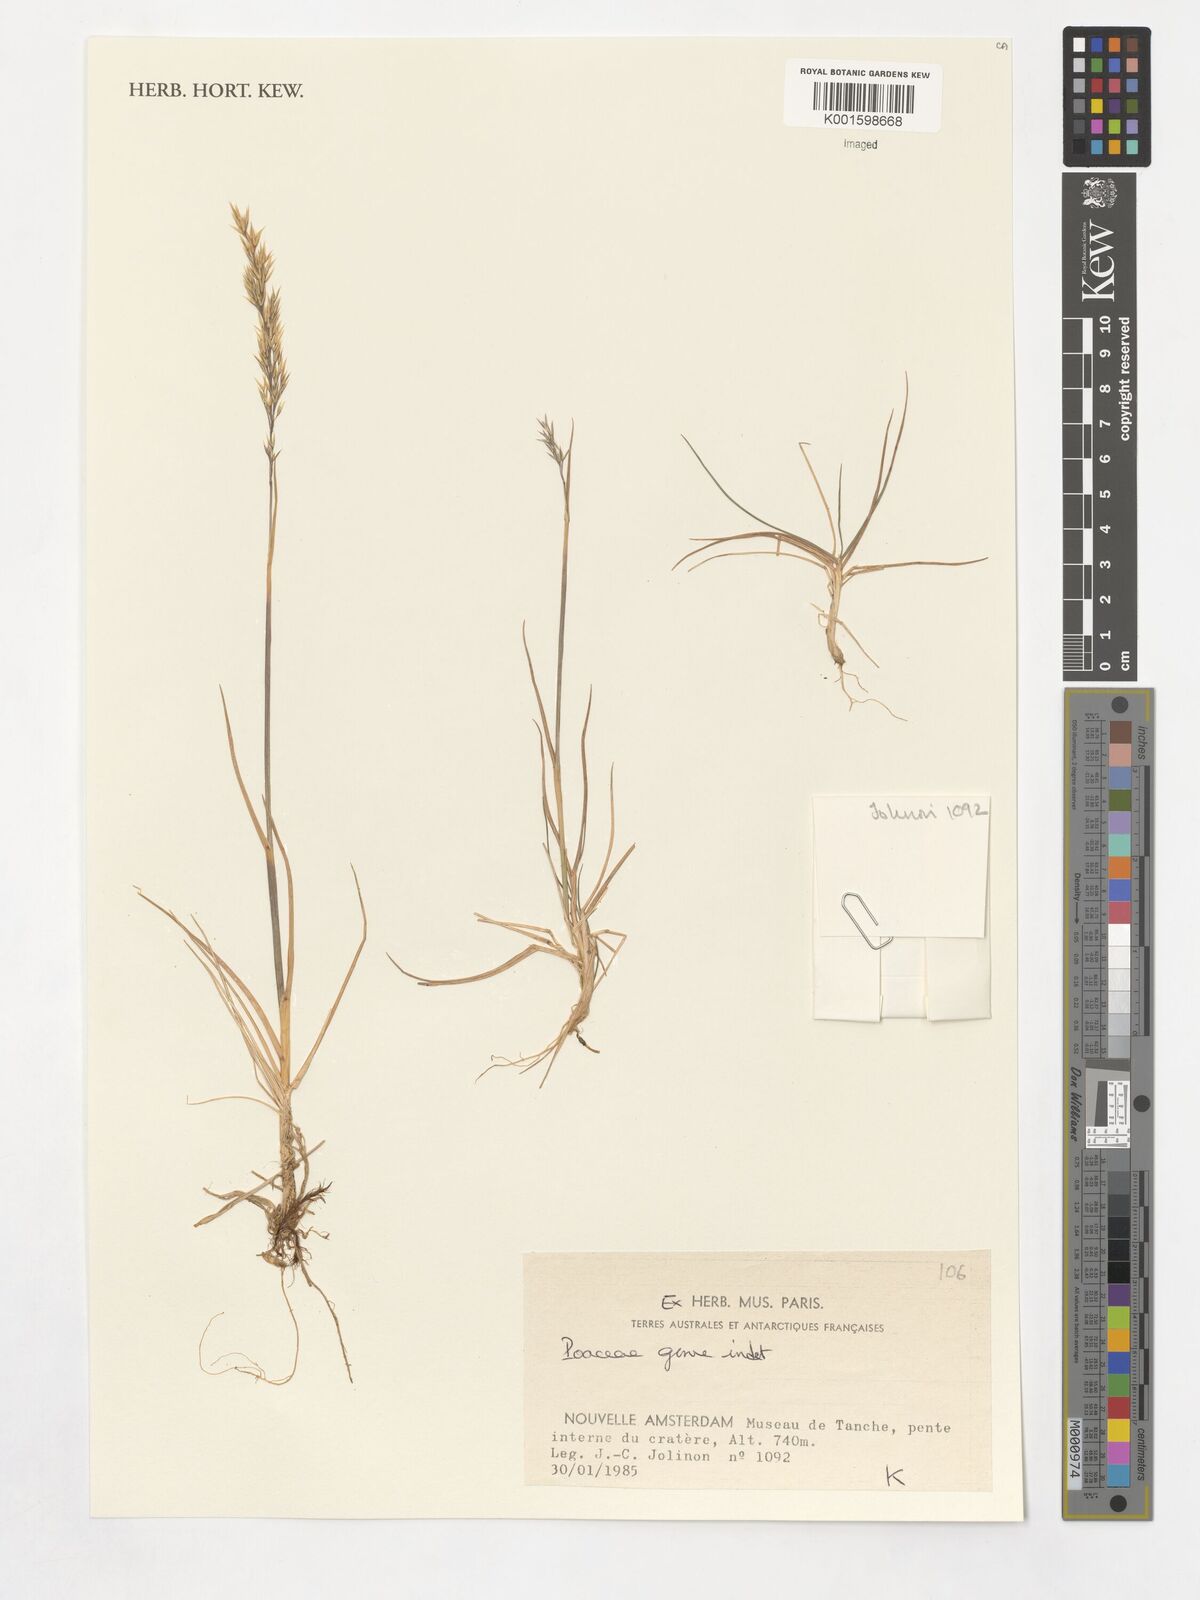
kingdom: Plantae
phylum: Tracheophyta
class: Liliopsida
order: Poales
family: Poaceae
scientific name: Poaceae
